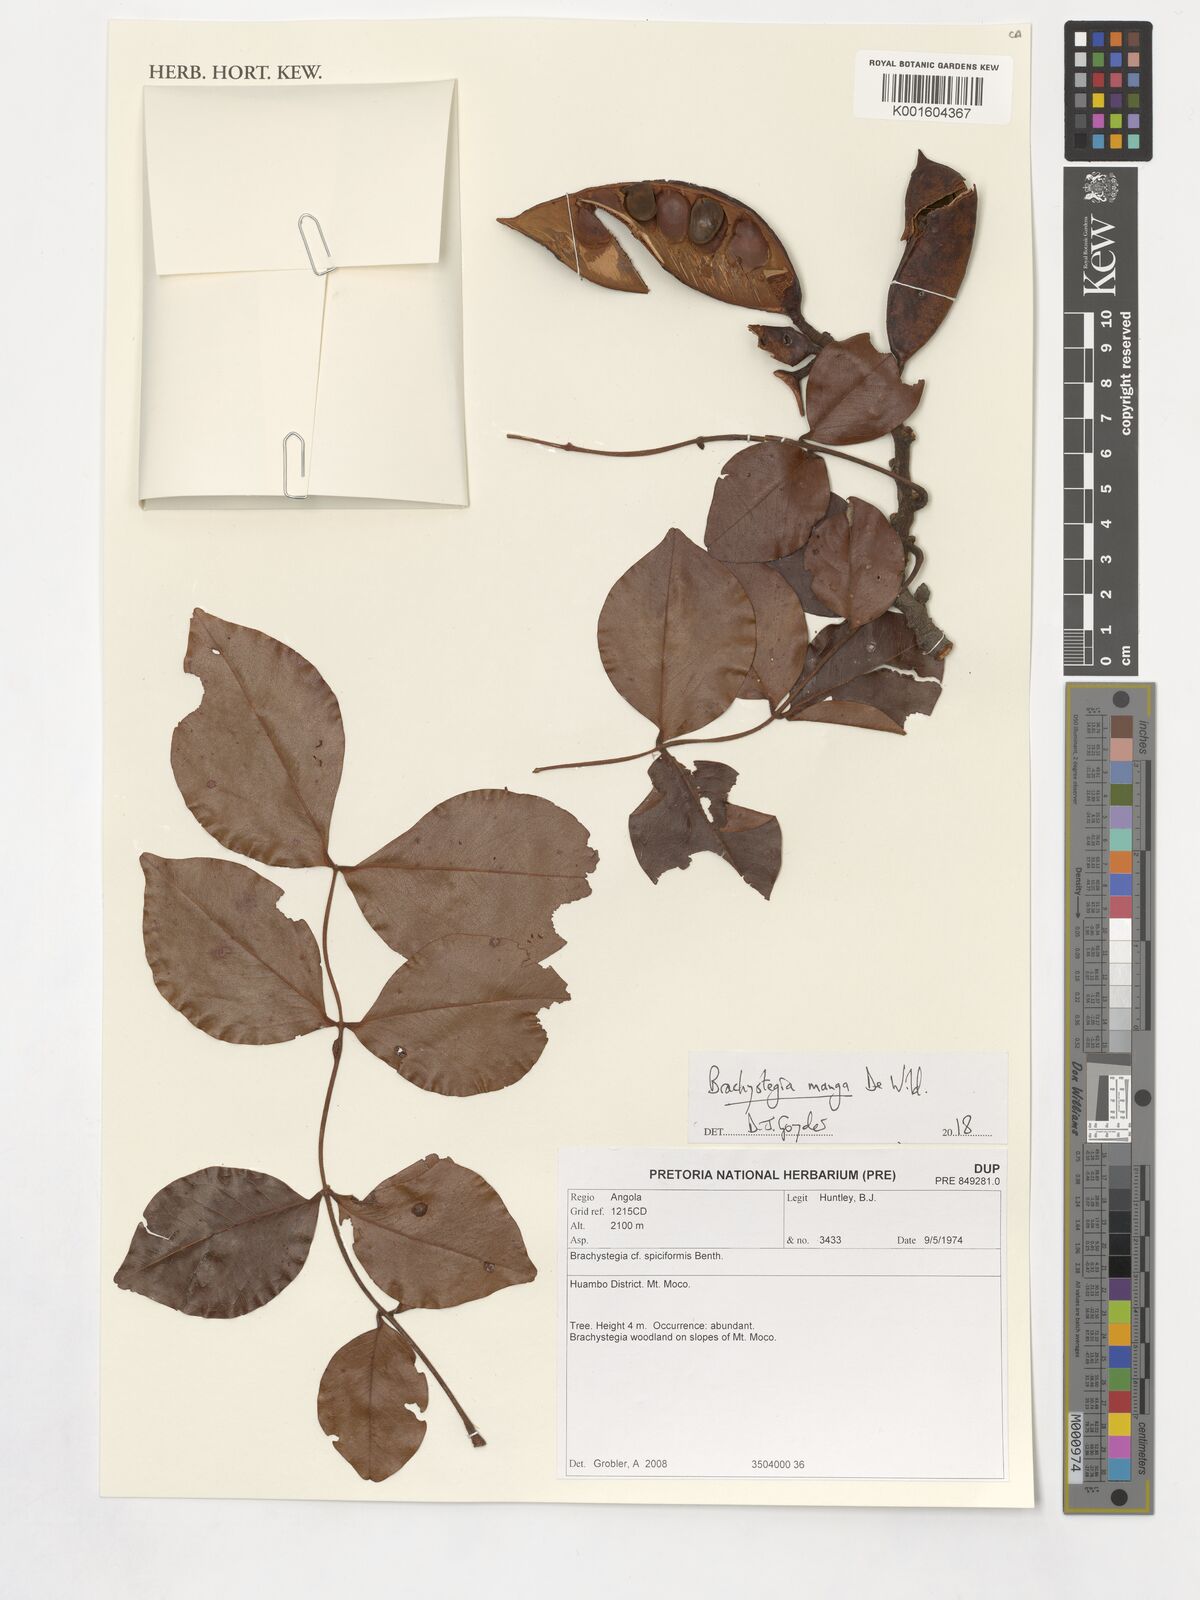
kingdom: Plantae
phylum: Tracheophyta
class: Magnoliopsida
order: Fabales
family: Fabaceae
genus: Brachystegia
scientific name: Brachystegia spiciformis
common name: Zebrawood
